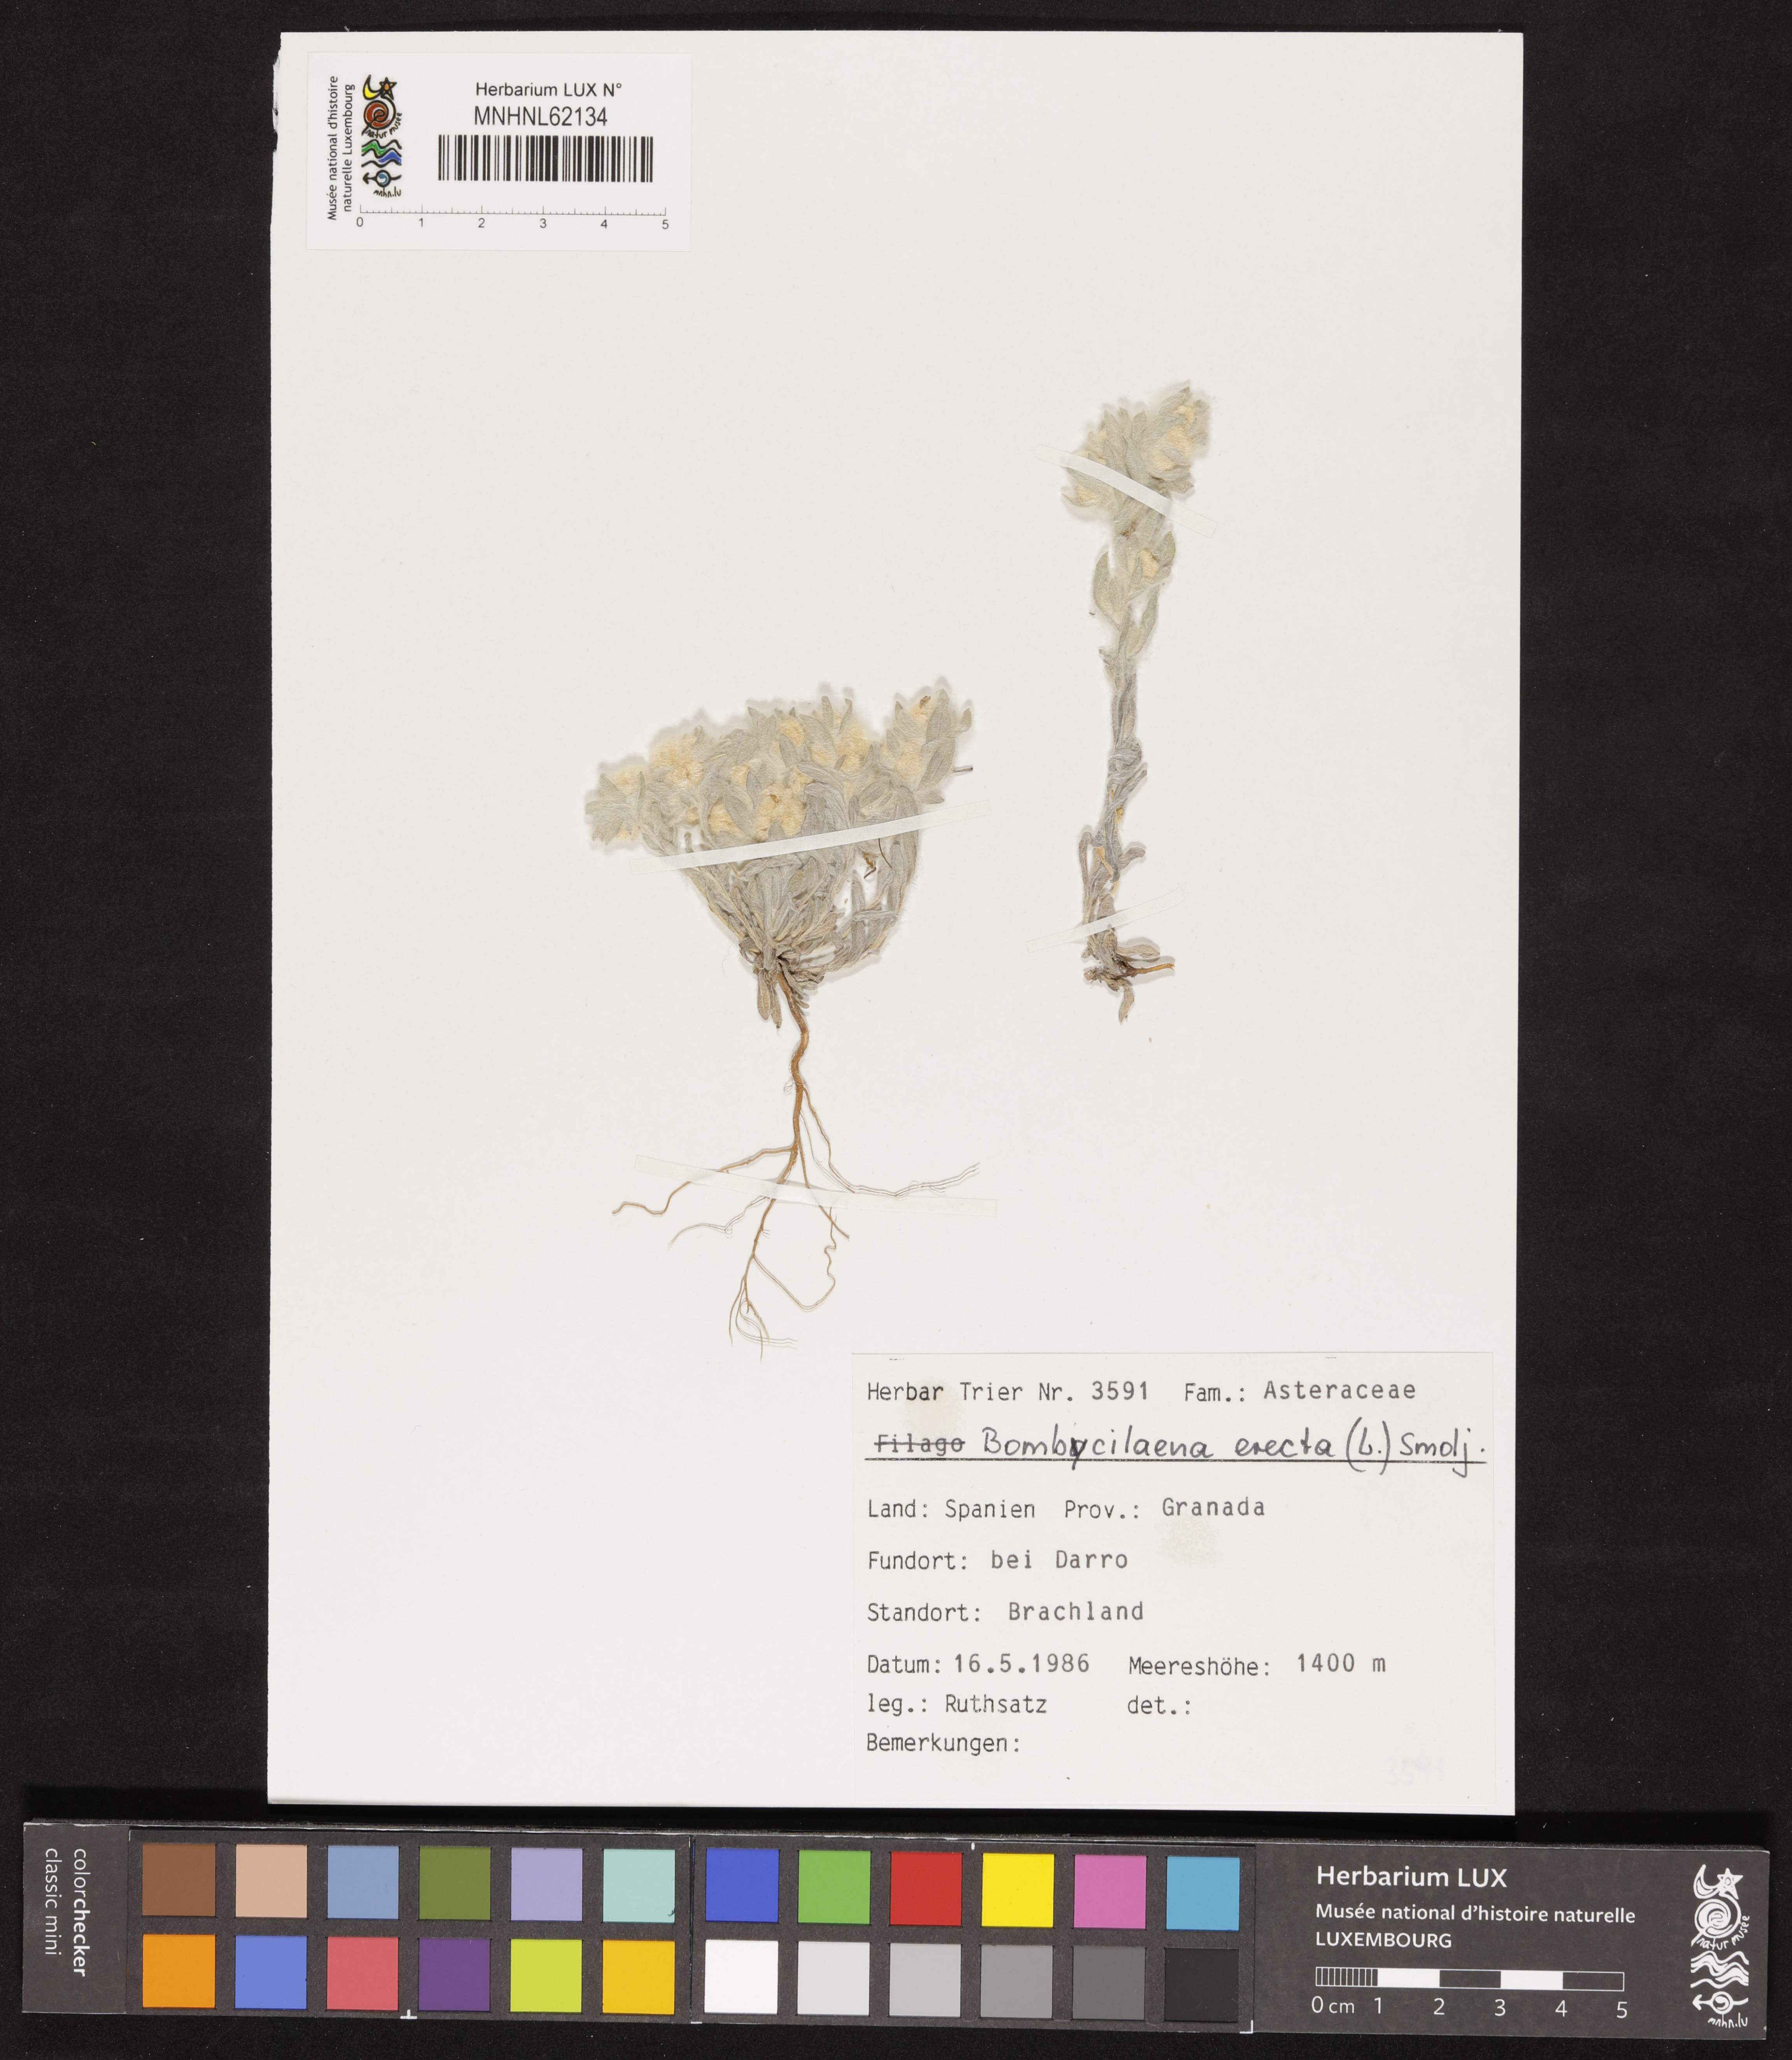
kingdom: Plantae
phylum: Tracheophyta
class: Magnoliopsida
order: Asterales
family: Asteraceae
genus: Bombycilaena
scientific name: Bombycilaena erecta
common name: Micropus
